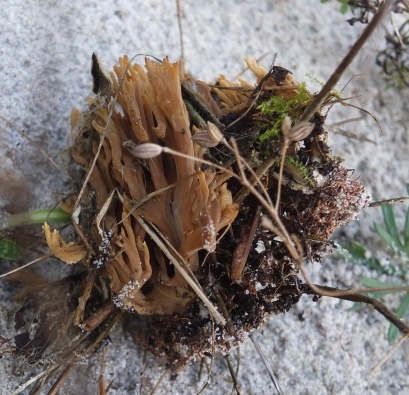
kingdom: Fungi
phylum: Basidiomycota
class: Agaricomycetes
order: Gomphales
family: Gomphaceae
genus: Phaeoclavulina
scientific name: Phaeoclavulina abietina
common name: gulgrøn koralsvamp
